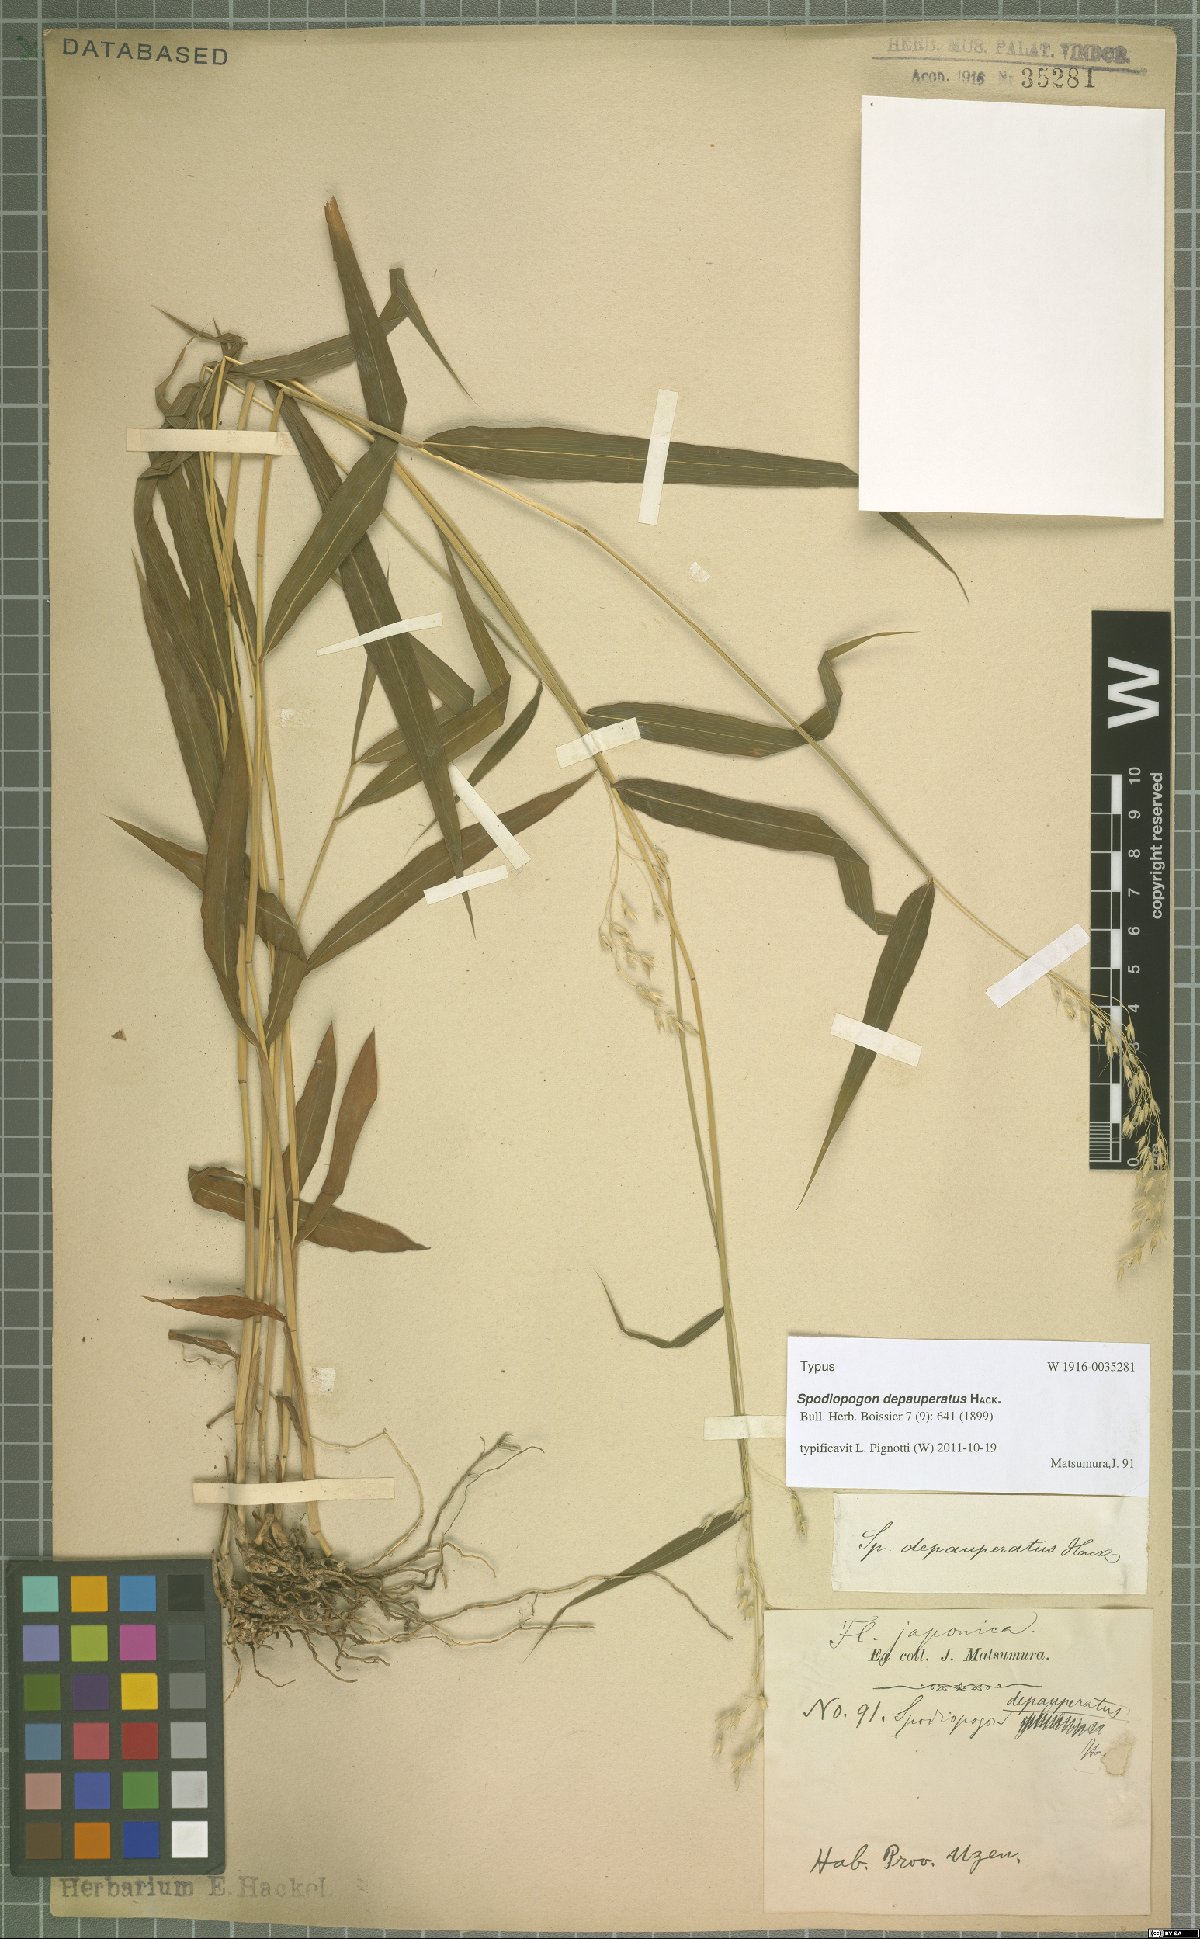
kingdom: Plantae
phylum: Tracheophyta
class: Liliopsida
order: Poales
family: Poaceae
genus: Spodiopogon
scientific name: Spodiopogon depauperatus
